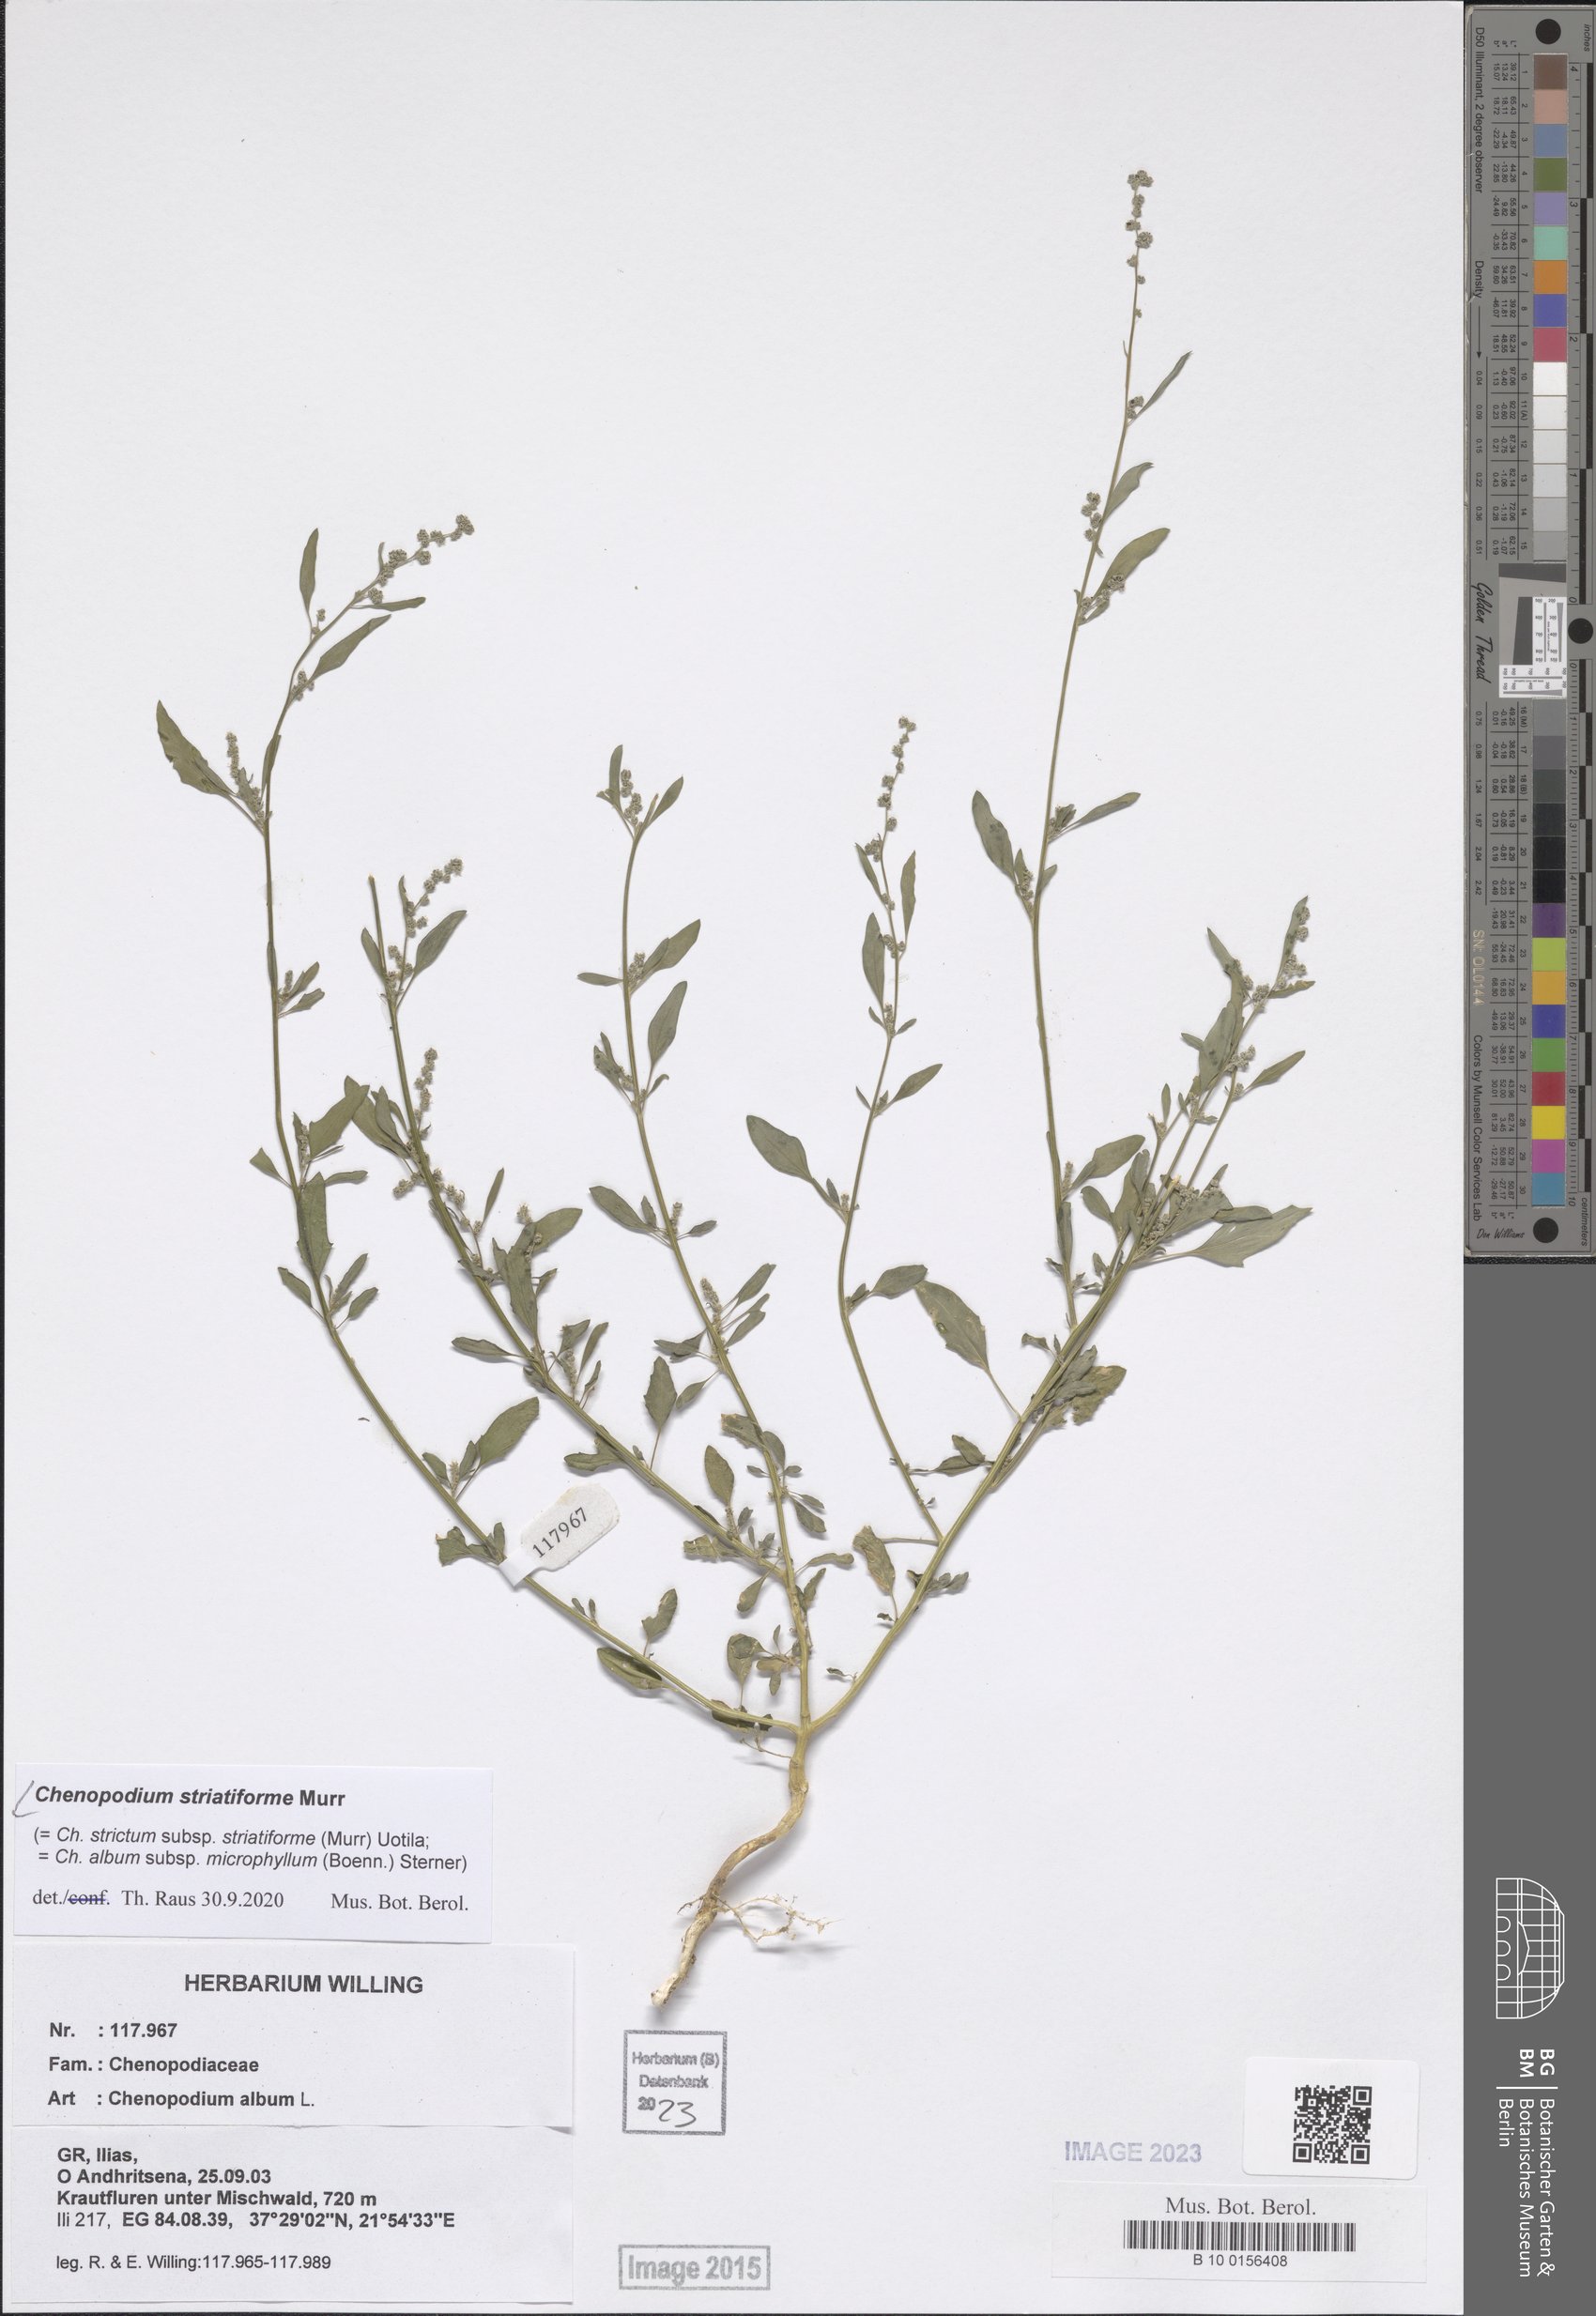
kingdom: Plantae
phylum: Tracheophyta
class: Magnoliopsida
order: Caryophyllales
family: Amaranthaceae
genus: Chenopodium
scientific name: Chenopodium striatiforme
